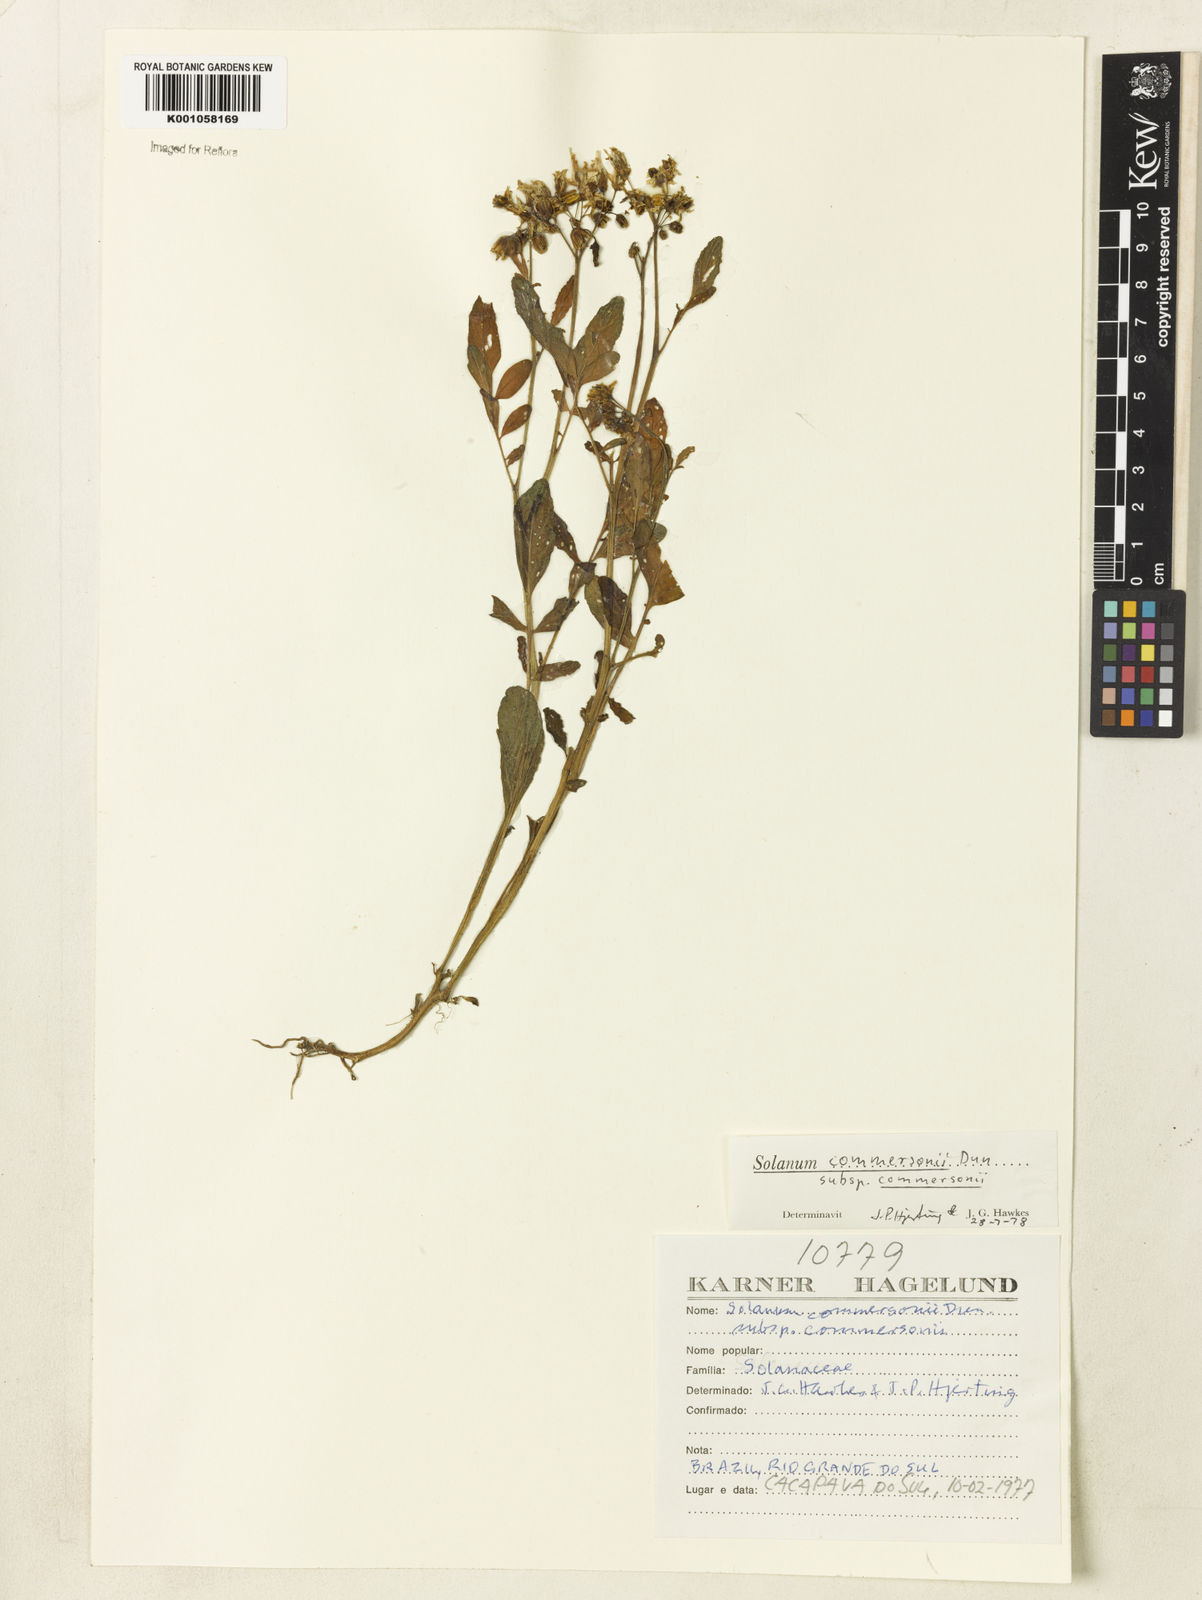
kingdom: Plantae
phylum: Tracheophyta
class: Magnoliopsida
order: Solanales
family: Solanaceae
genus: Solanum
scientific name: Solanum
